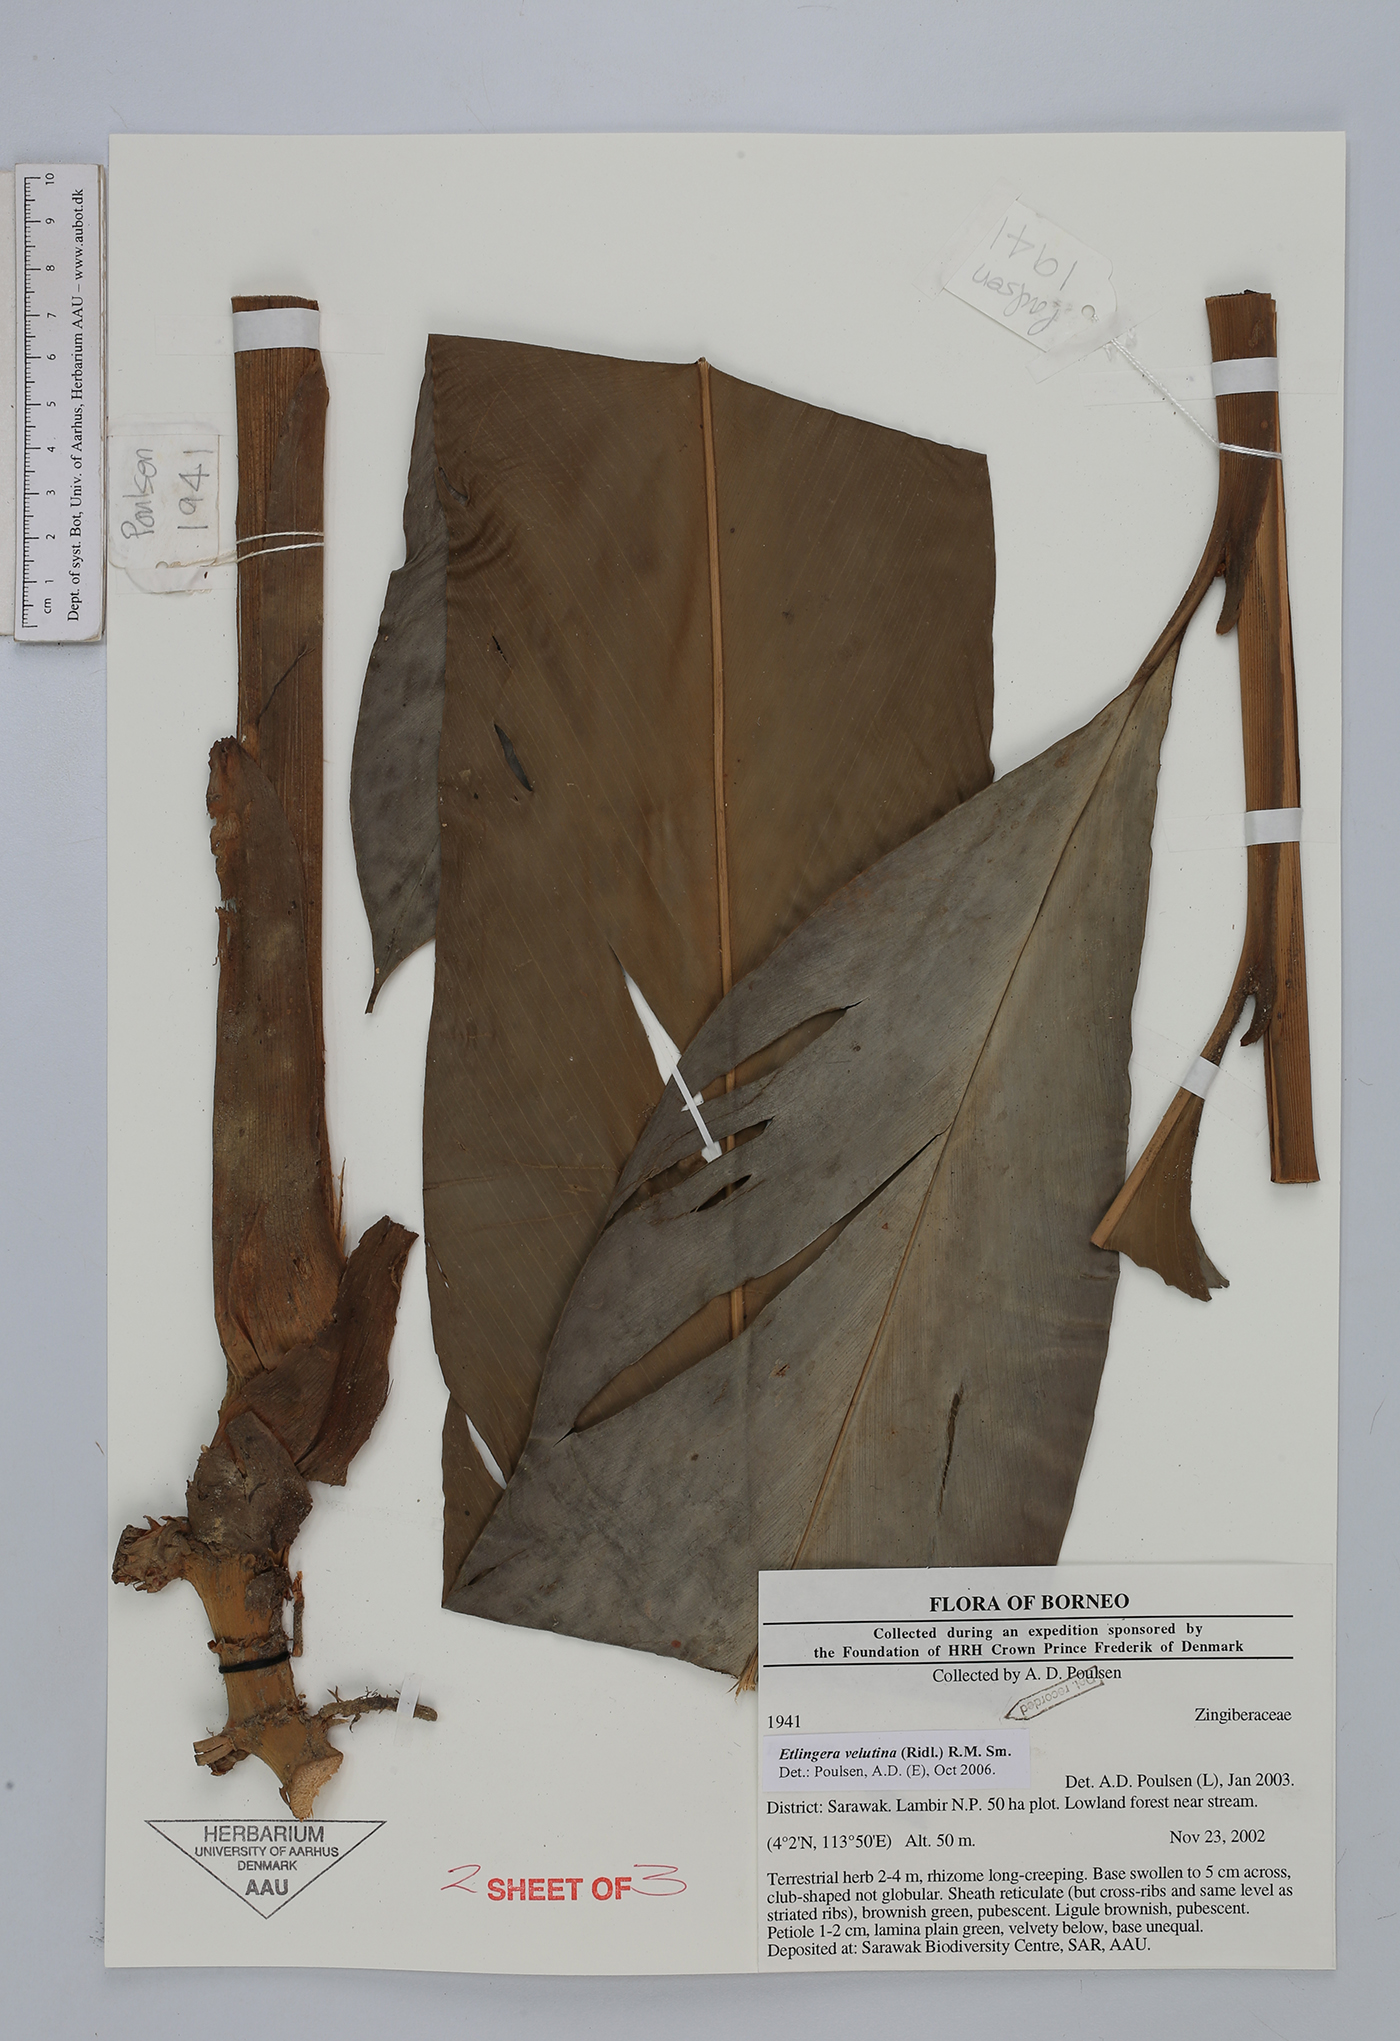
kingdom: Plantae
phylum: Tracheophyta
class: Liliopsida
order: Zingiberales
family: Zingiberaceae
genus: Etlingera
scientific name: Etlingera velutina
